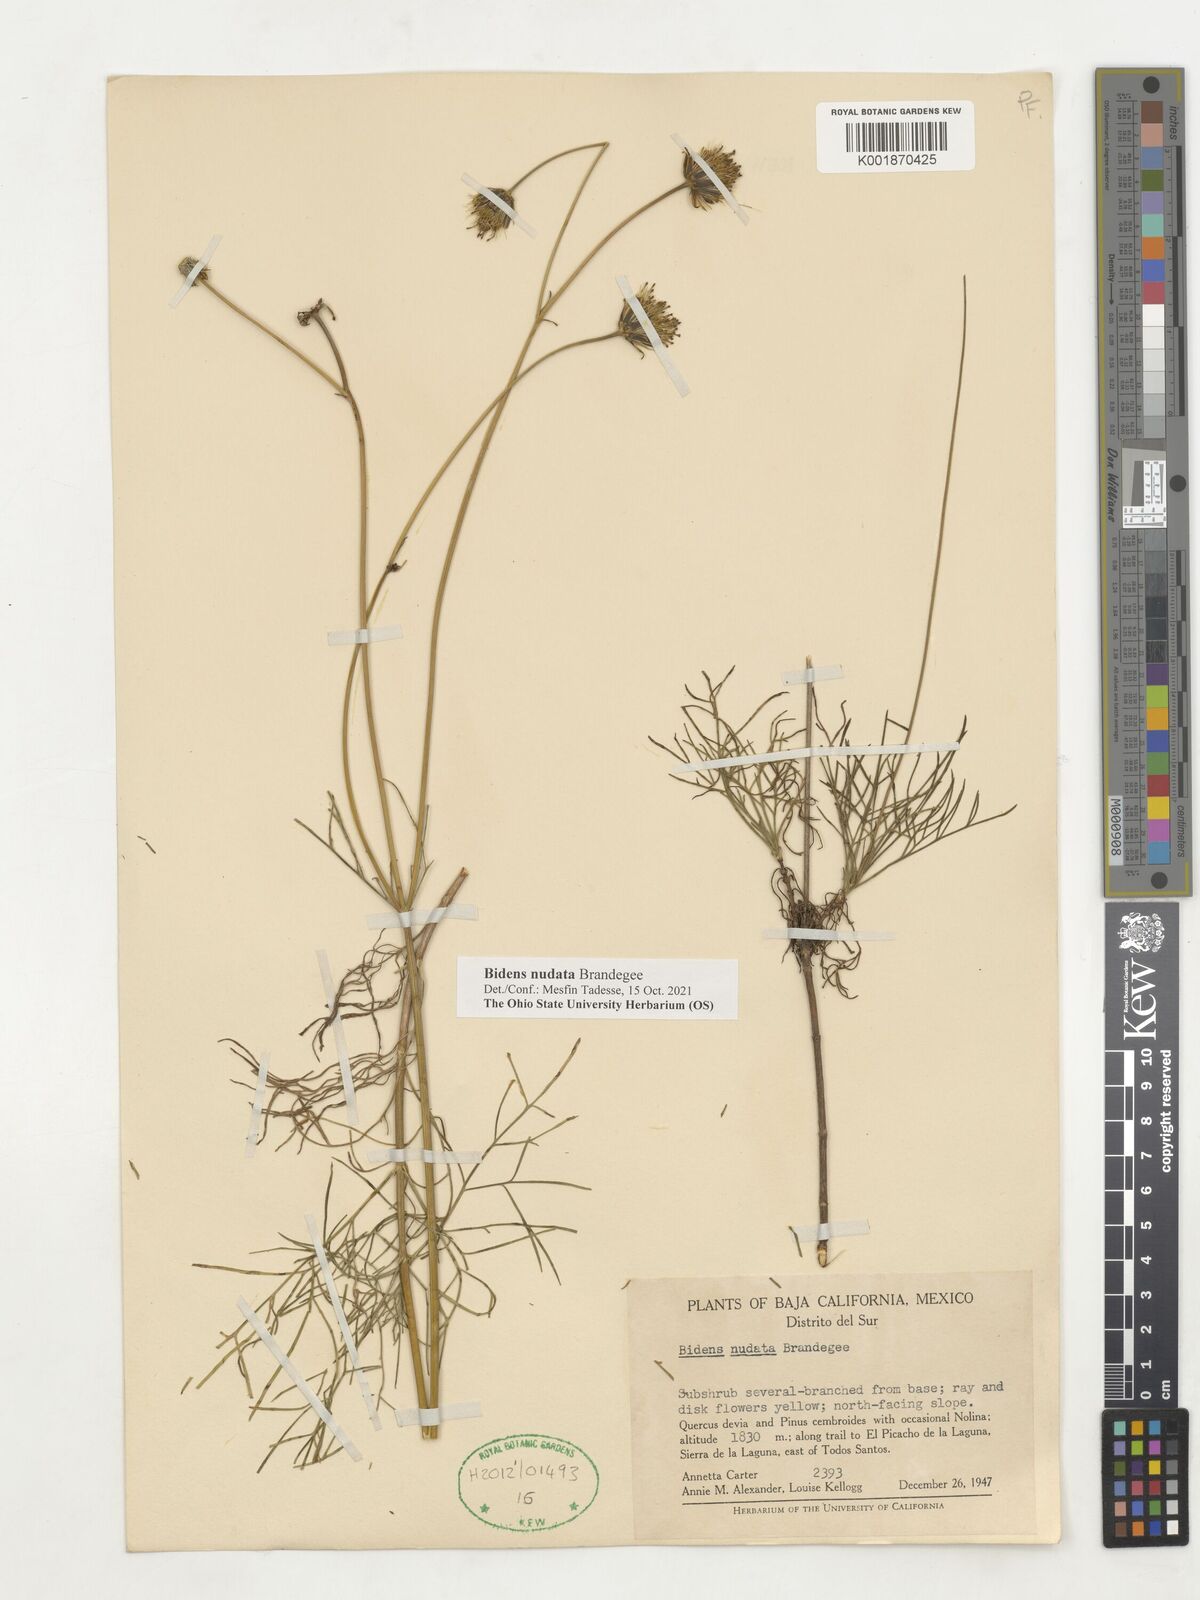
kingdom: Plantae
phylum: Tracheophyta
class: Magnoliopsida
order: Asterales
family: Asteraceae
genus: Bidens
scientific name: Bidens nudata
